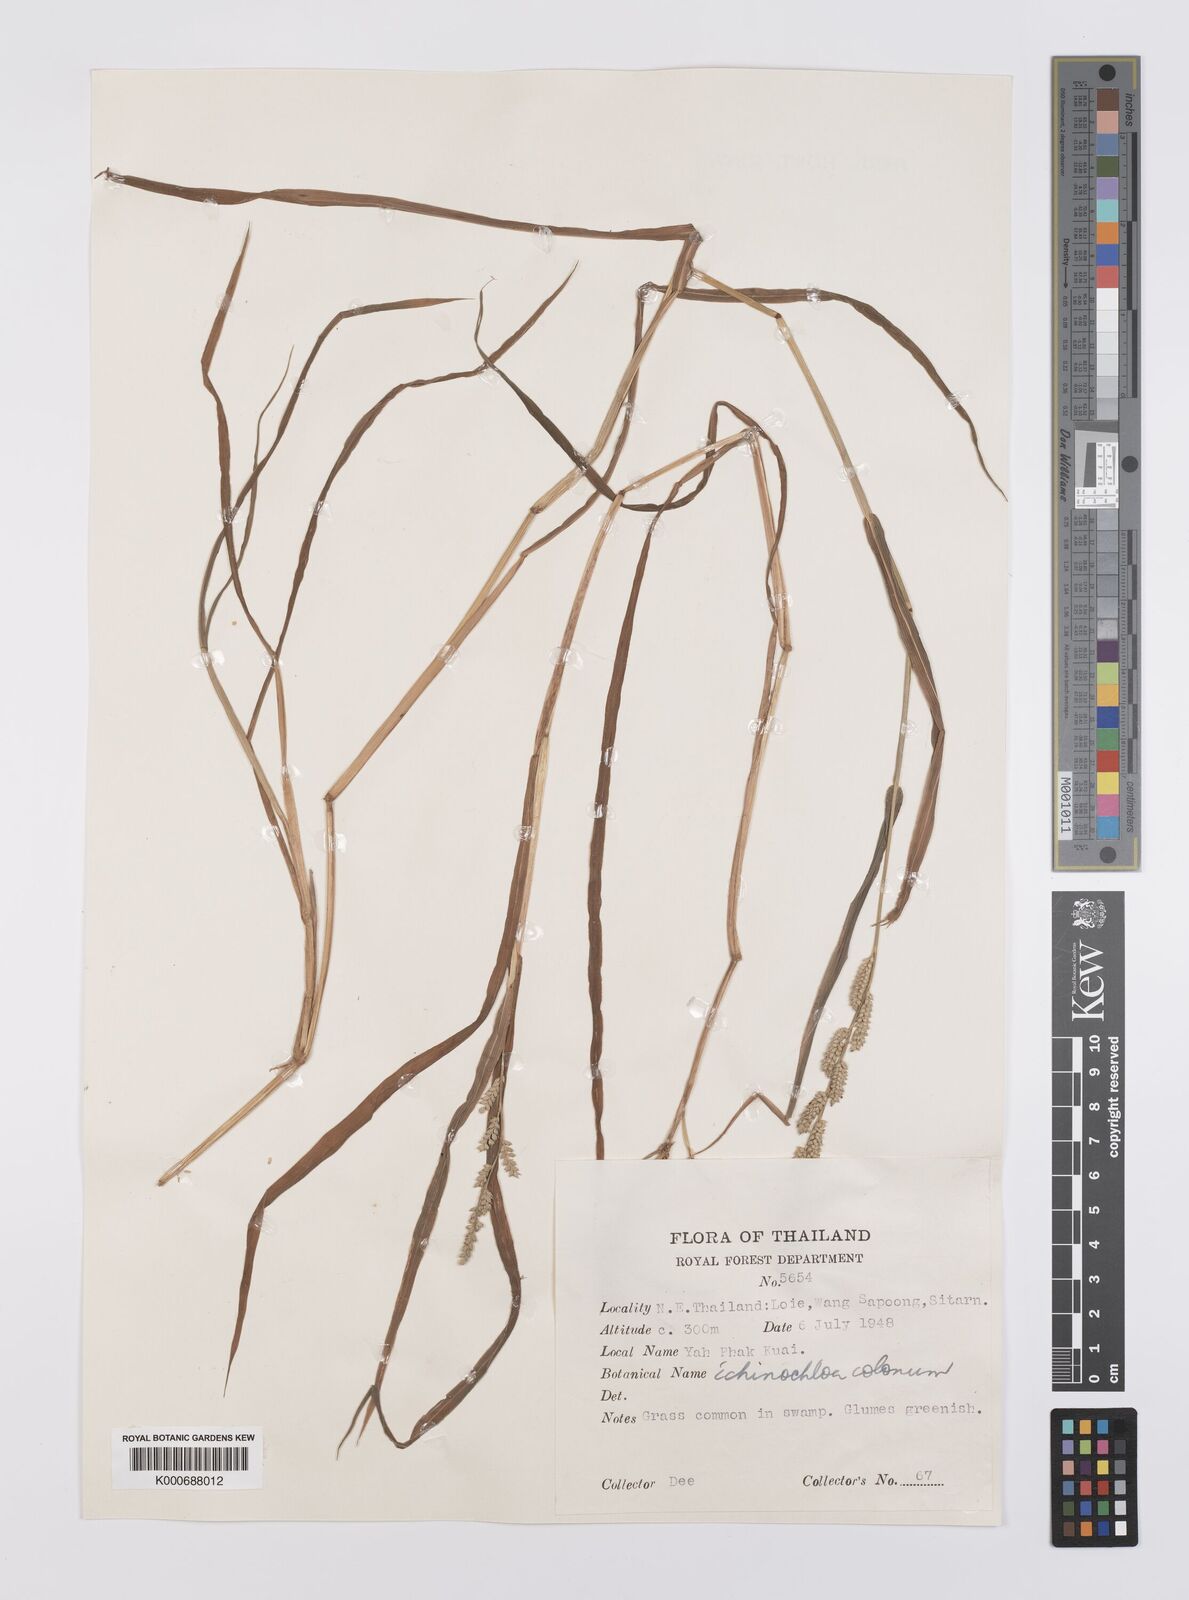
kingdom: Plantae
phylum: Tracheophyta
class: Liliopsida
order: Poales
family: Poaceae
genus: Echinochloa
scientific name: Echinochloa colonum
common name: Jungle rice
